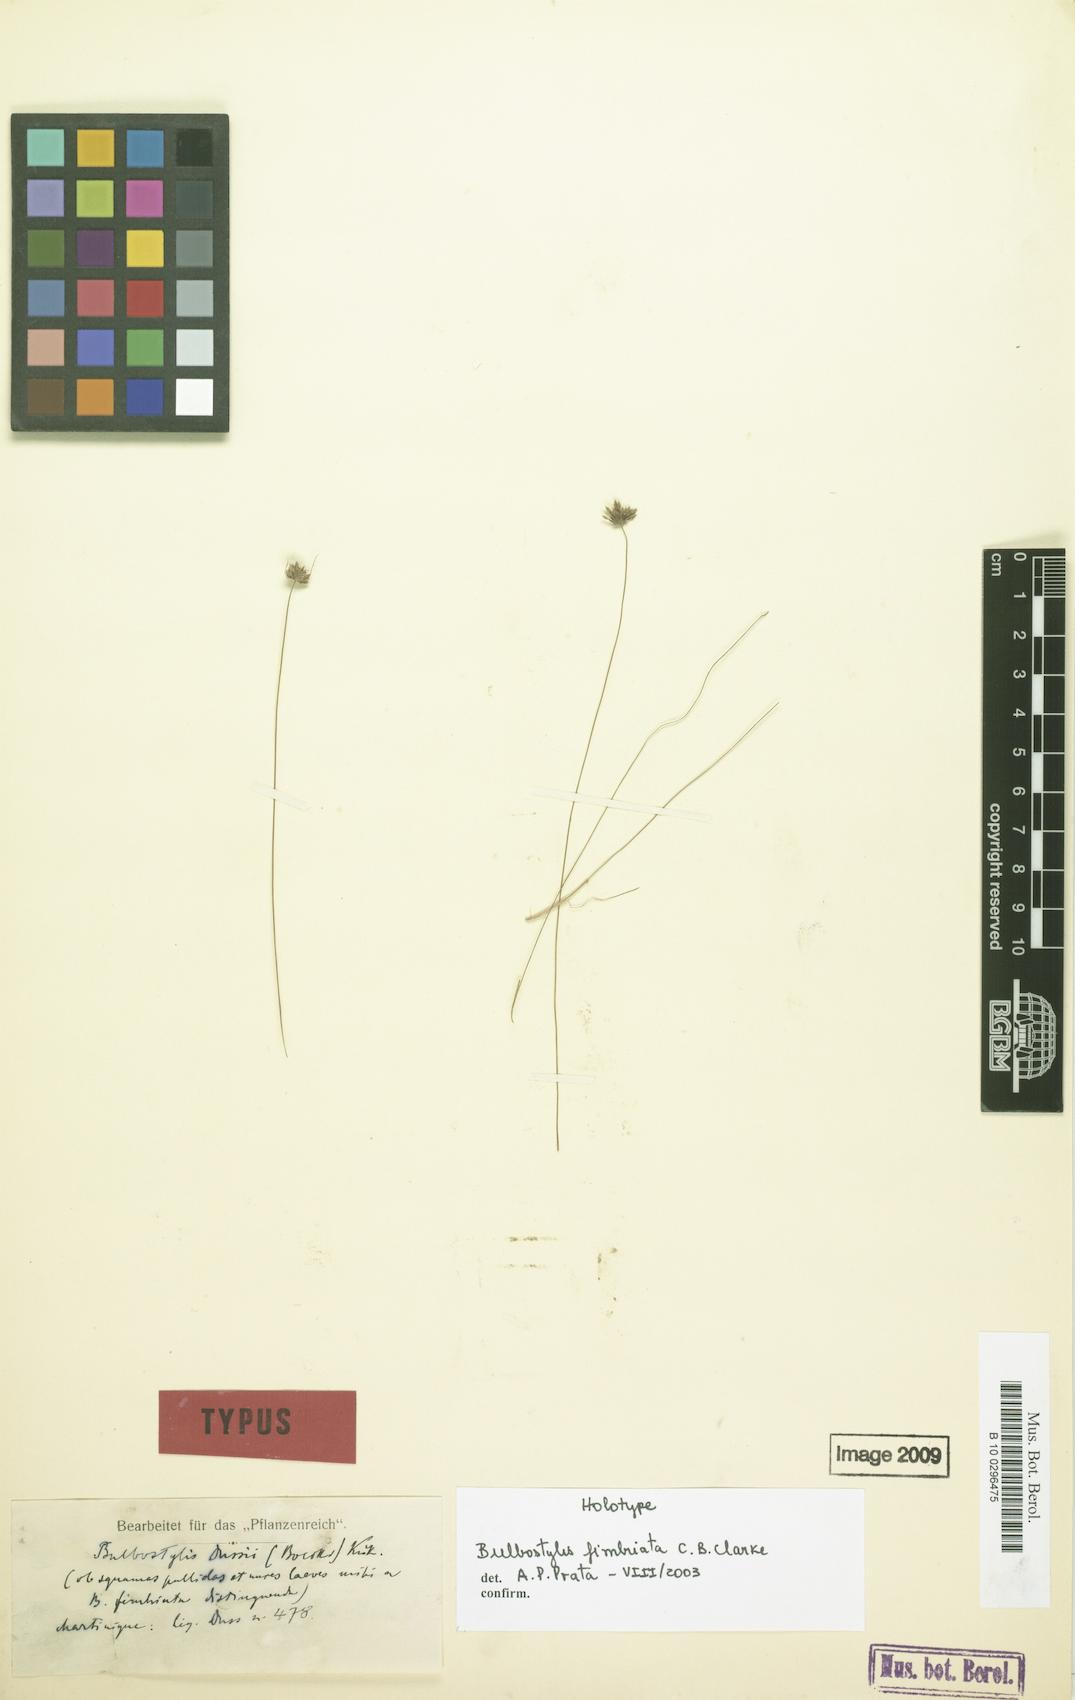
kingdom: Plantae
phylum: Tracheophyta
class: Liliopsida
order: Poales
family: Cyperaceae
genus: Bulbostylis
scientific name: Bulbostylis fimbriata
